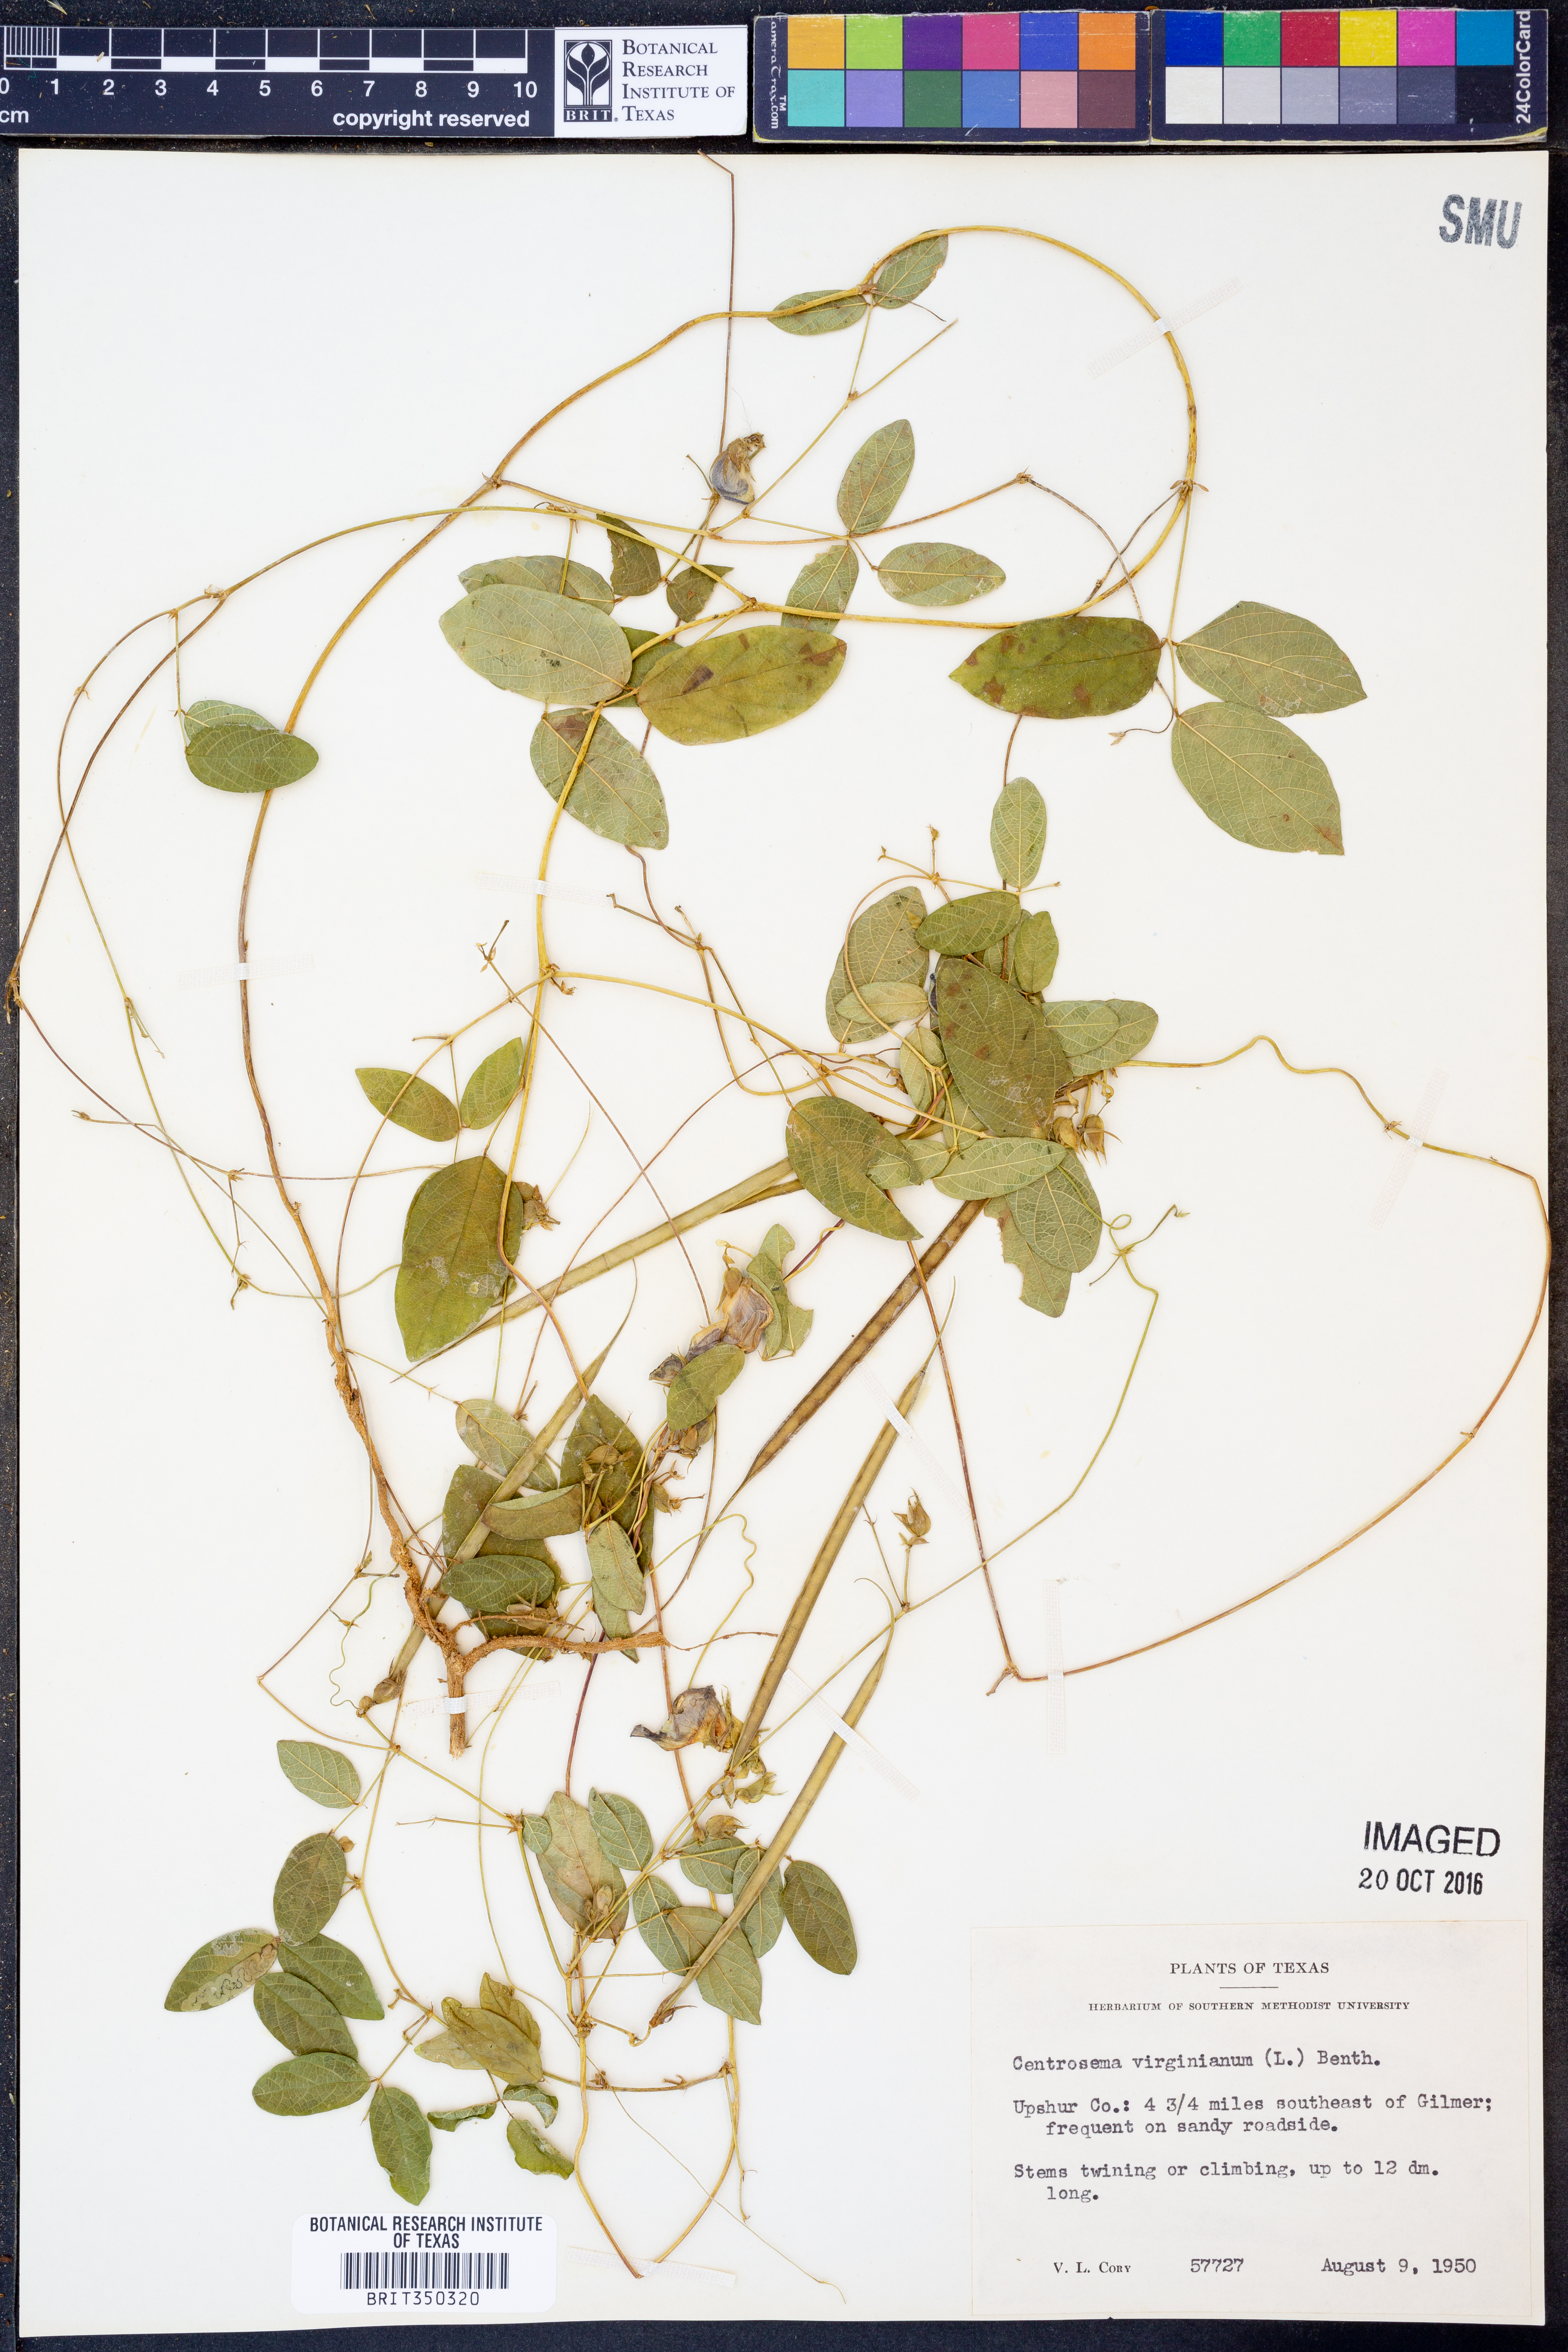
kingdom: Plantae
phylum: Tracheophyta
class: Magnoliopsida
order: Fabales
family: Fabaceae
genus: Centrosema
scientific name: Centrosema virginianum
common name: Butterfly-pea
